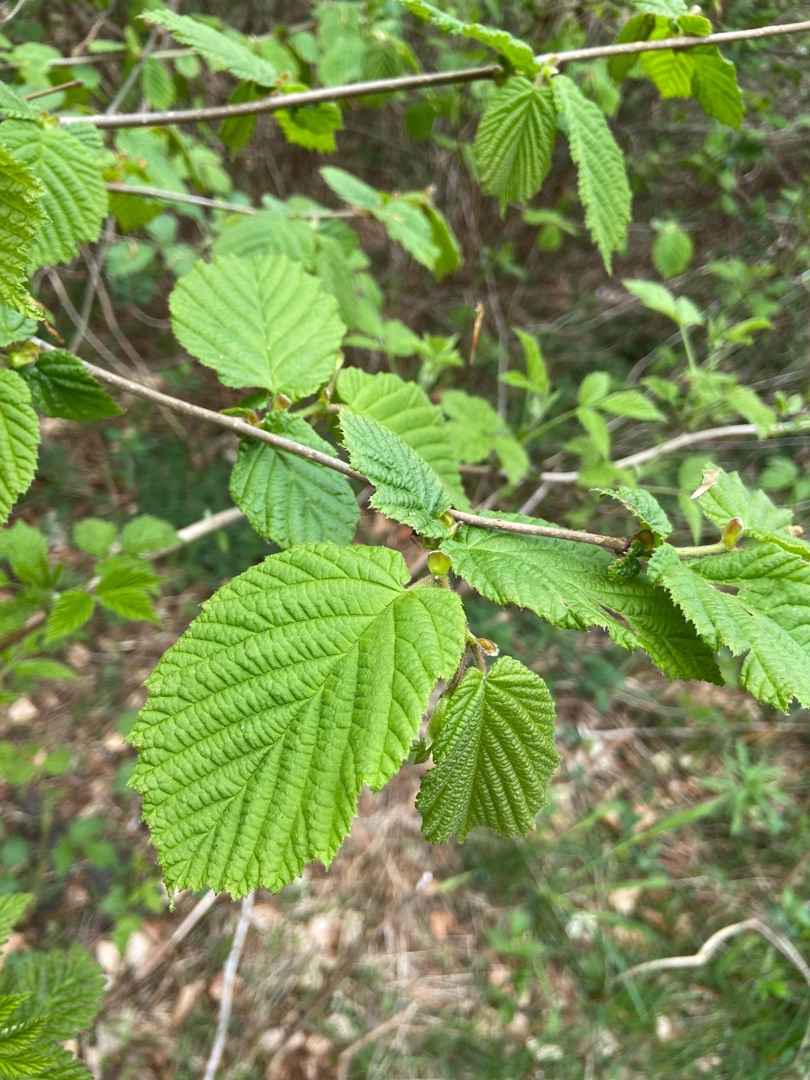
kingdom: Plantae
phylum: Tracheophyta
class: Magnoliopsida
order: Fagales
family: Betulaceae
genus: Corylus
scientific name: Corylus avellana
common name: Hassel
